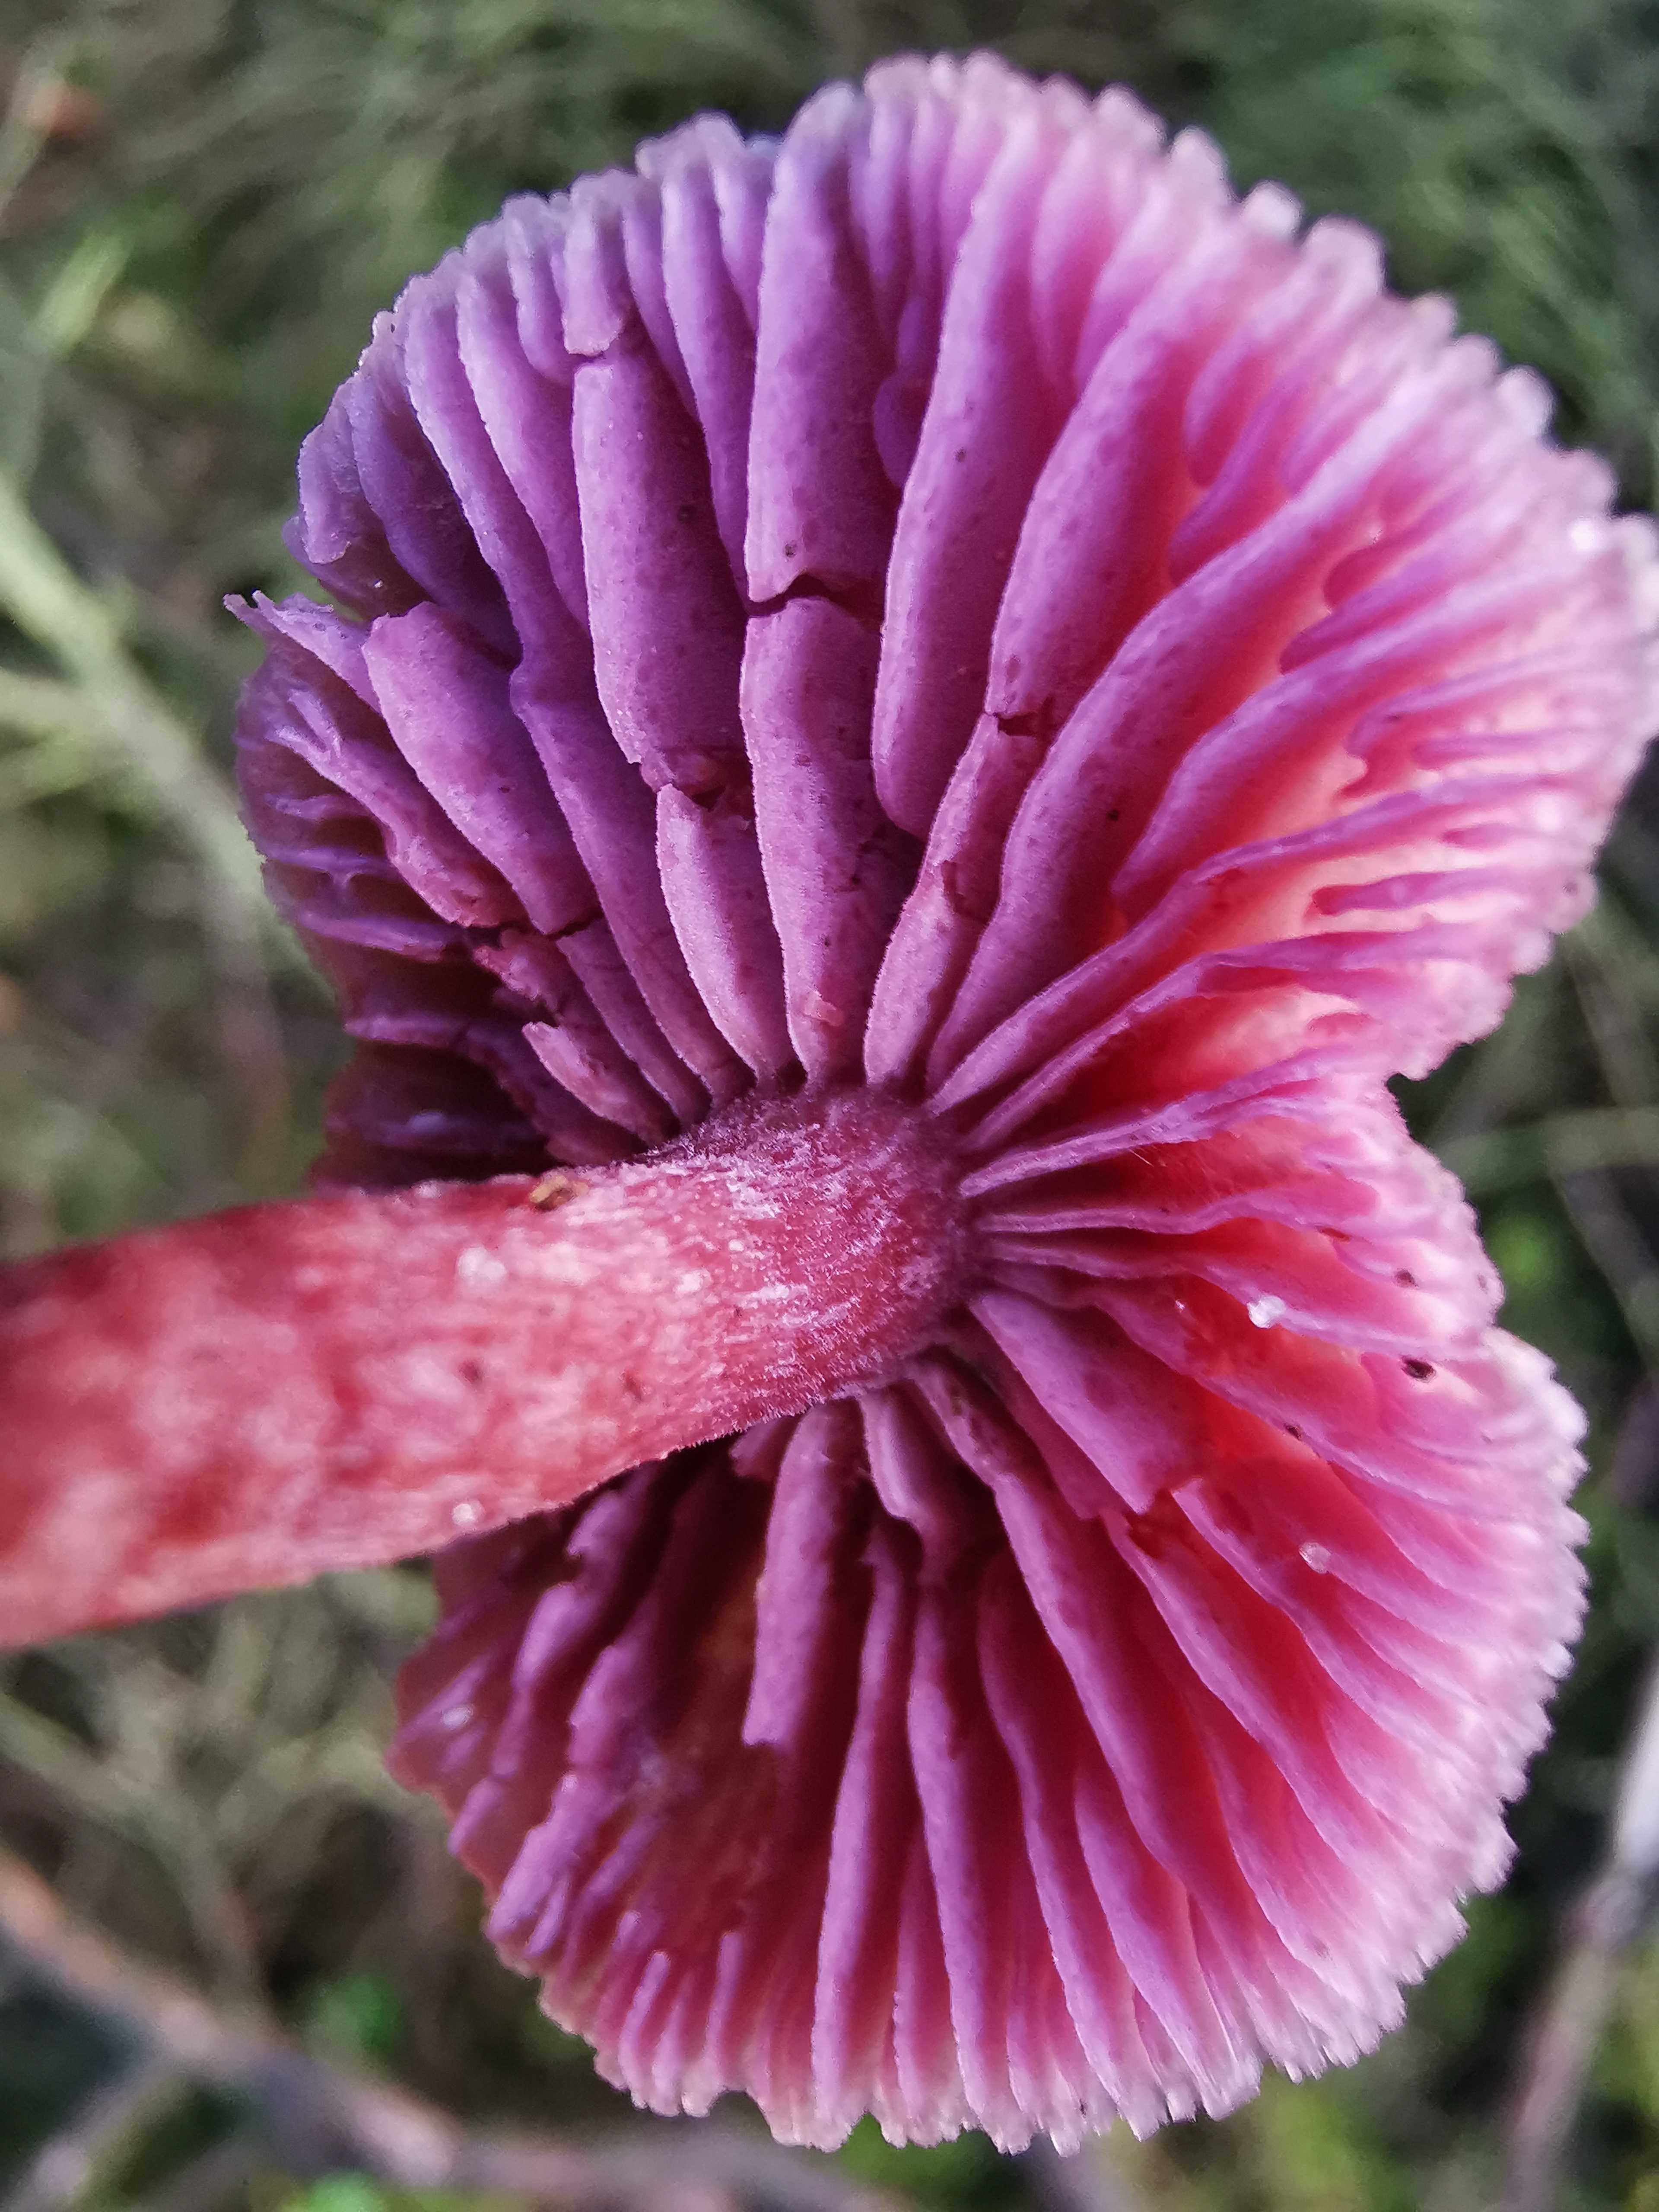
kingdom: Fungi
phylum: Basidiomycota
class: Agaricomycetes
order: Agaricales
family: Hydnangiaceae
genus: Laccaria
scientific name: Laccaria amethystina
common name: violet ametysthat
